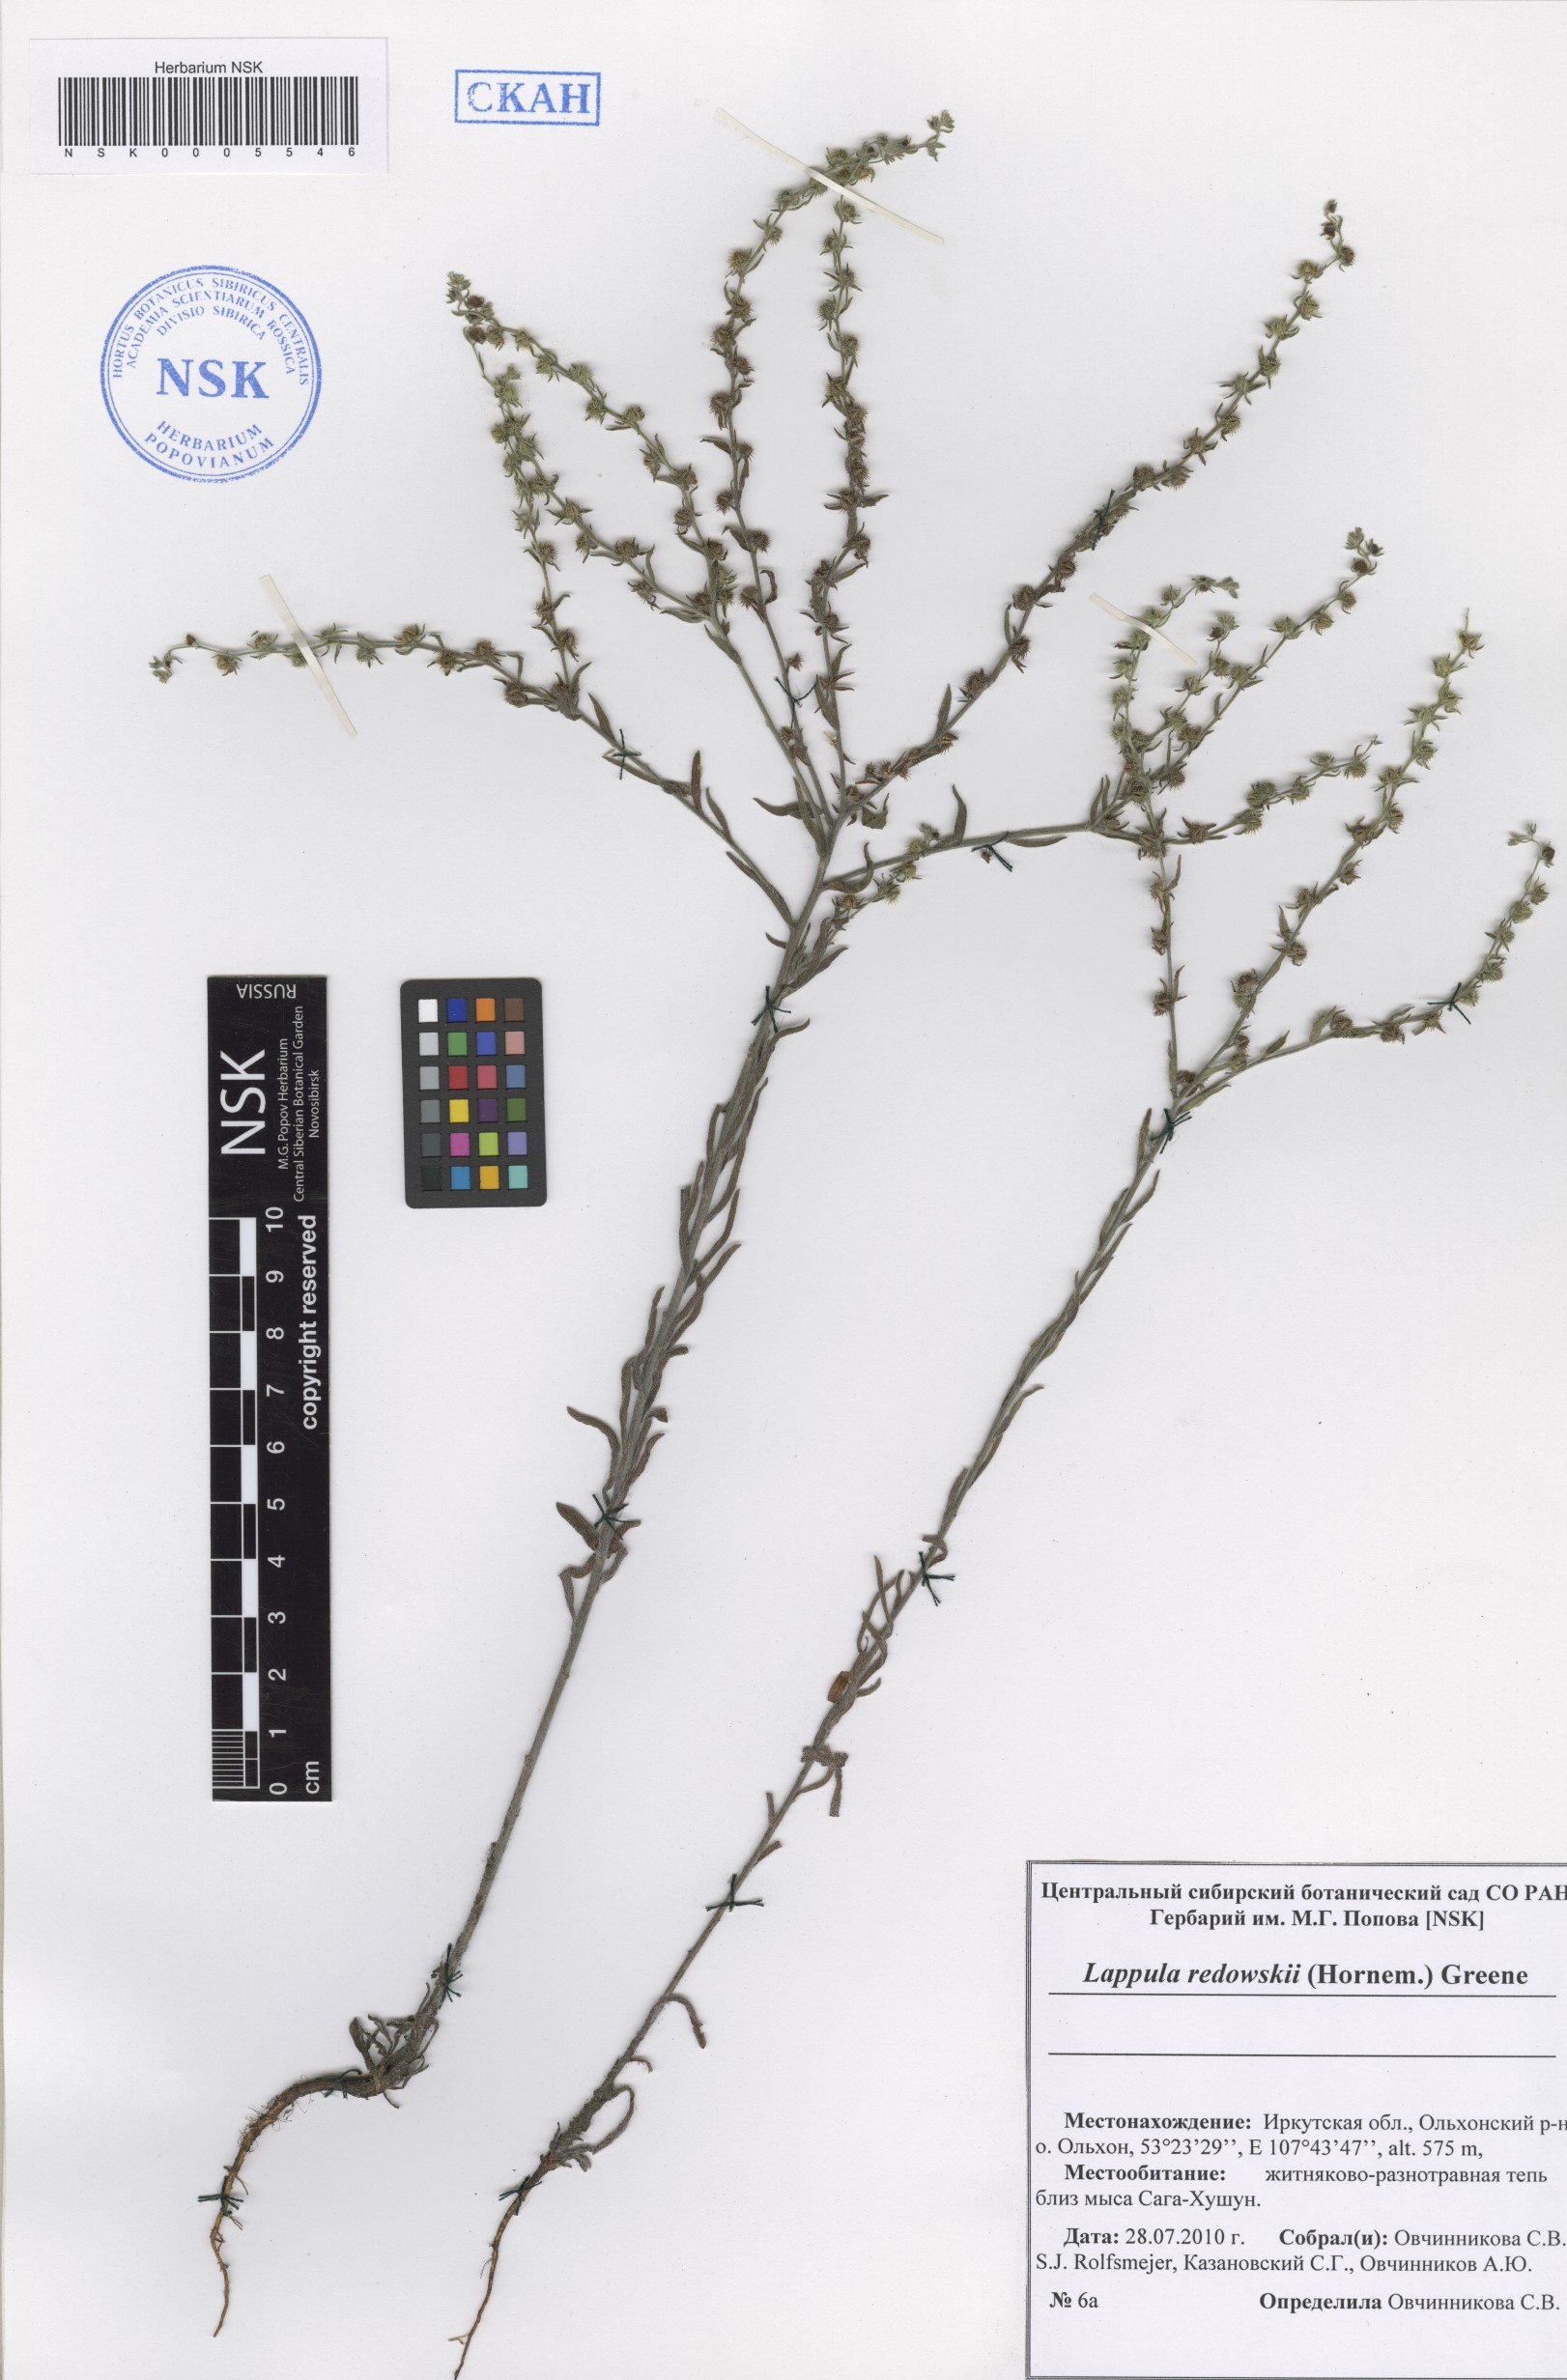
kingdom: Plantae
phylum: Tracheophyta
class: Magnoliopsida
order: Boraginales
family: Boraginaceae
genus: Lappula
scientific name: Lappula redowskii
